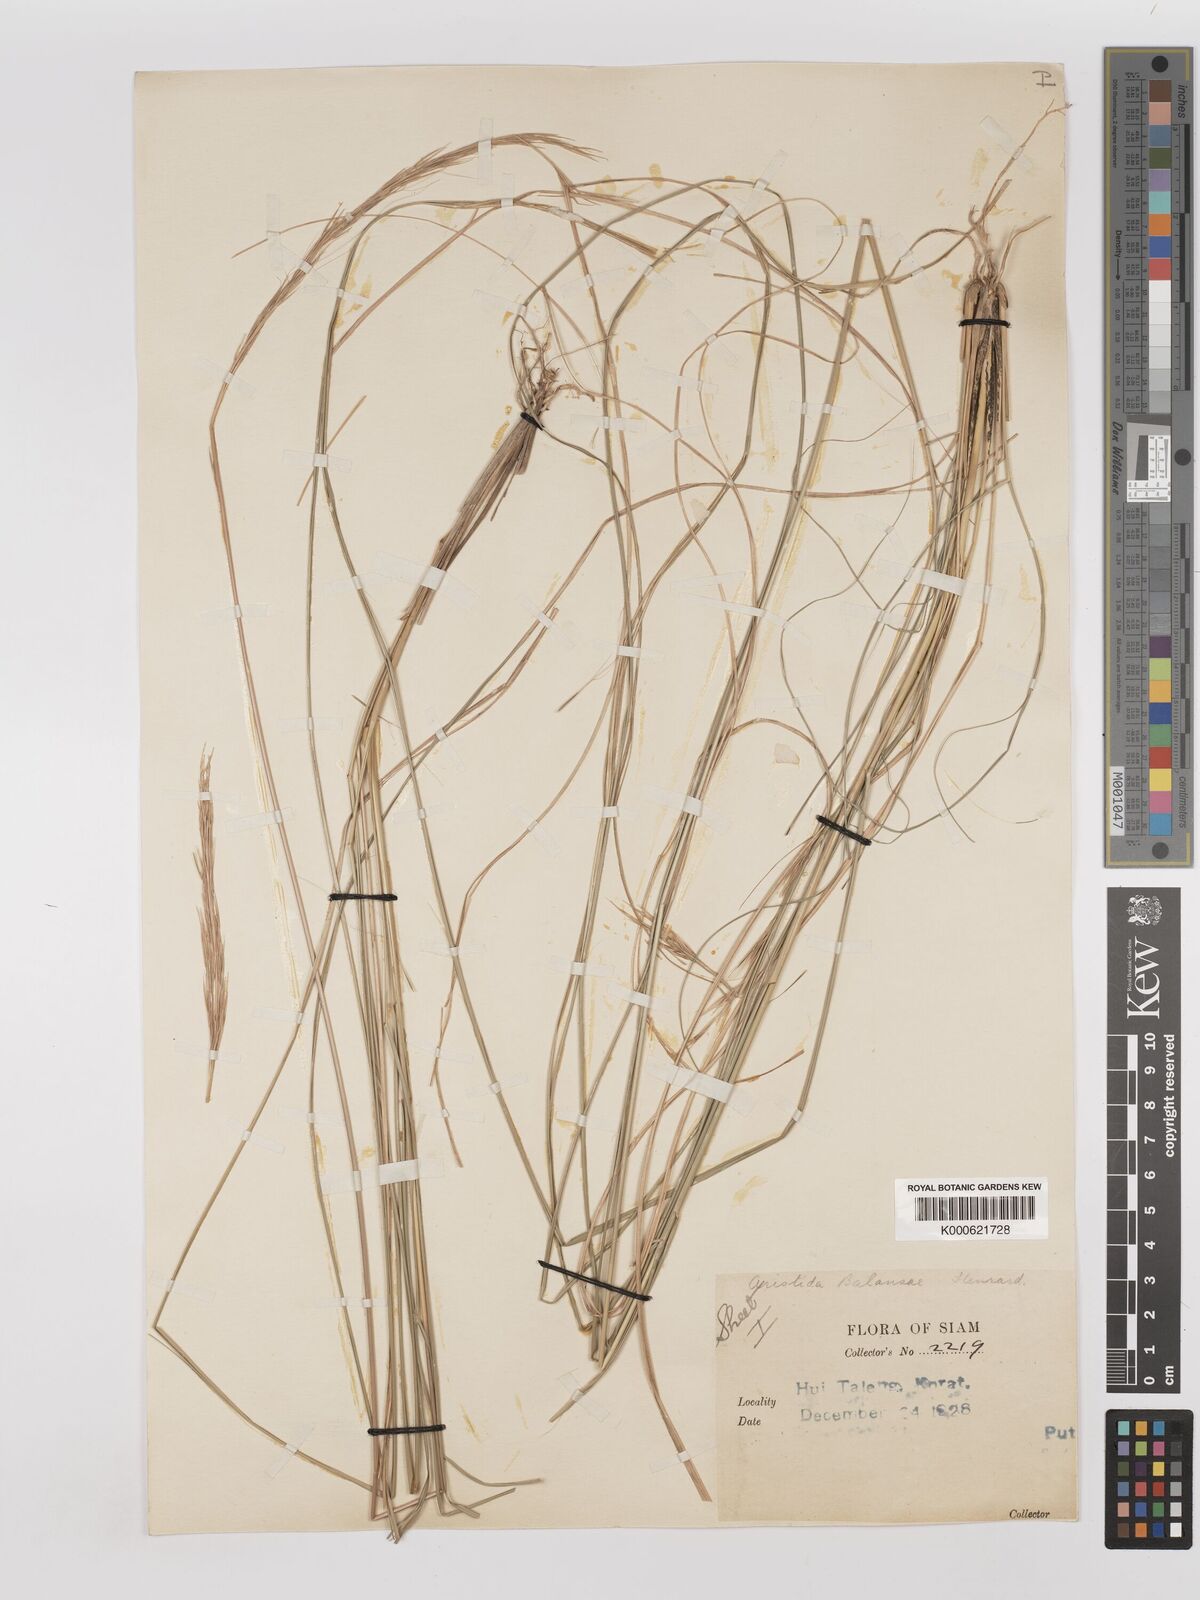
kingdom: Plantae
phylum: Tracheophyta
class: Liliopsida
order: Poales
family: Poaceae
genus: Aristida
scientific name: Aristida balansae
